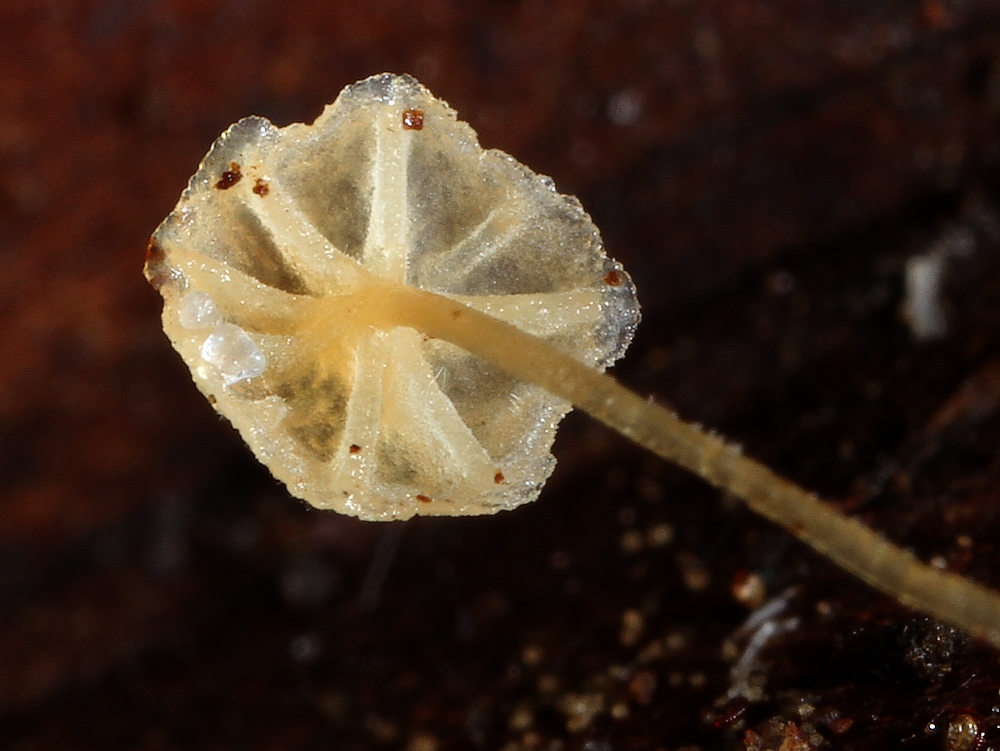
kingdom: Fungi
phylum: Basidiomycota
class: Agaricomycetes
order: Agaricales
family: Mycenaceae
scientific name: Mycenaceae
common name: huesvampfamilien
